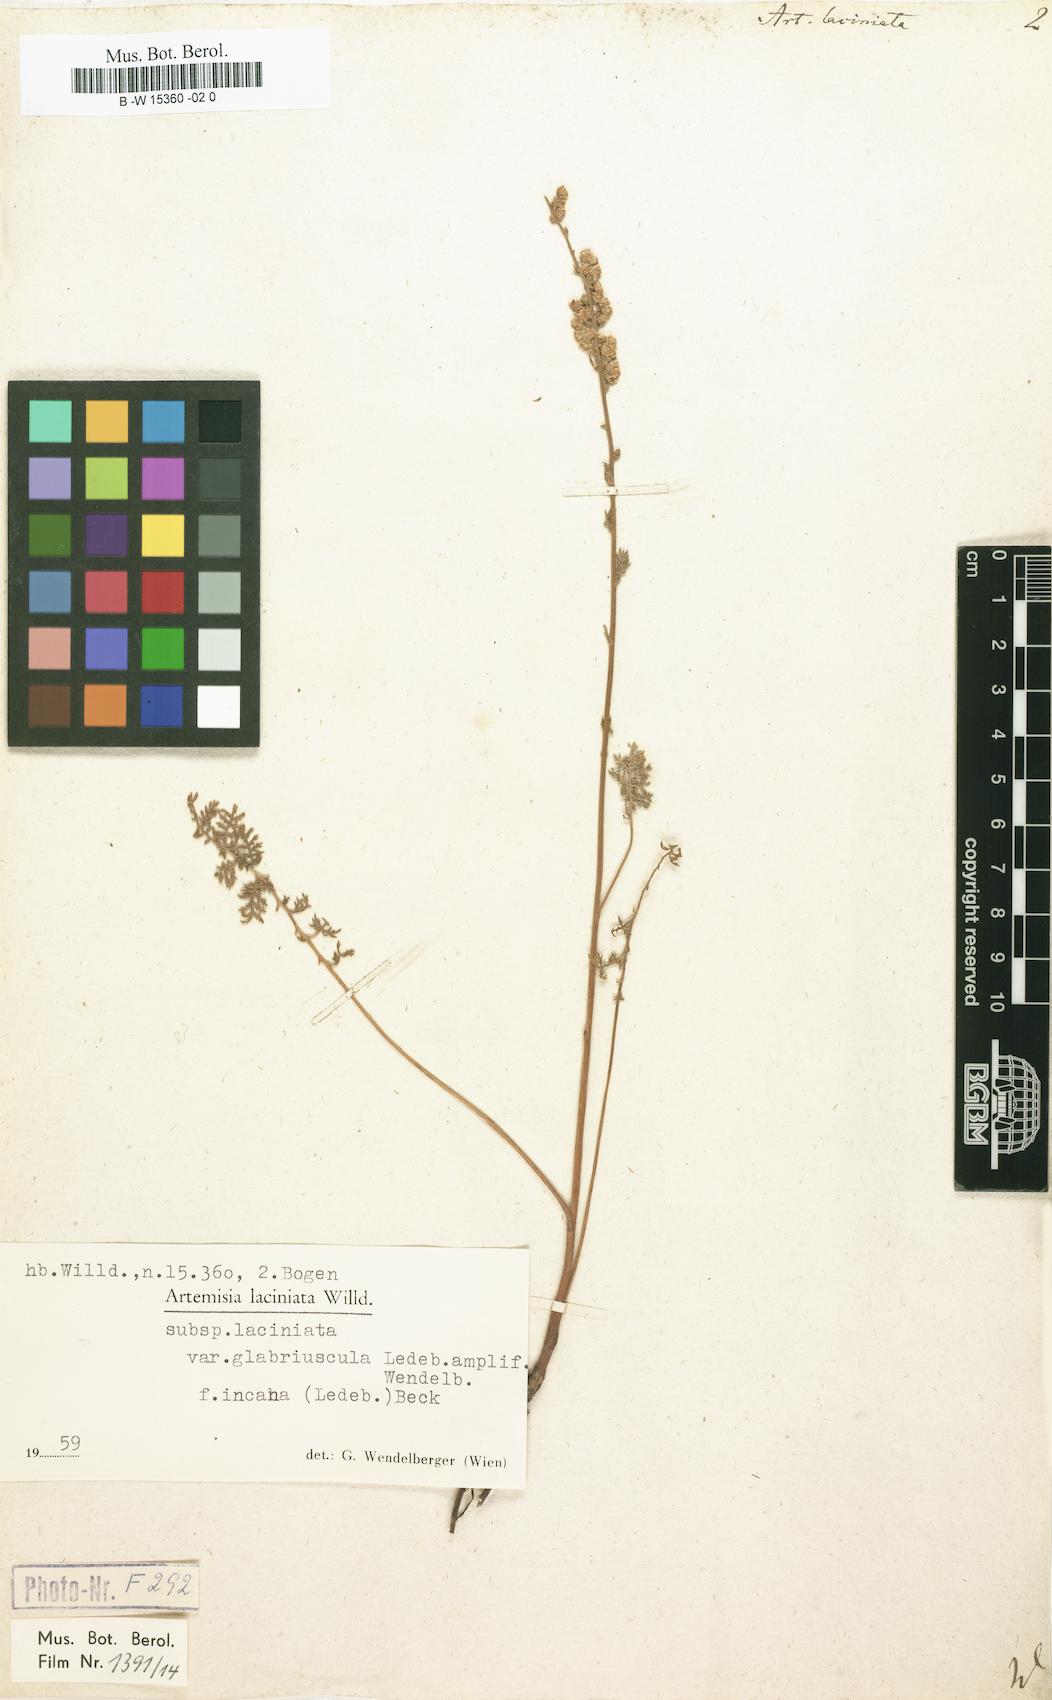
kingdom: Plantae
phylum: Tracheophyta
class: Magnoliopsida
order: Asterales
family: Asteraceae
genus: Artemisia
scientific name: Artemisia laciniata
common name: Siberian wormwood
